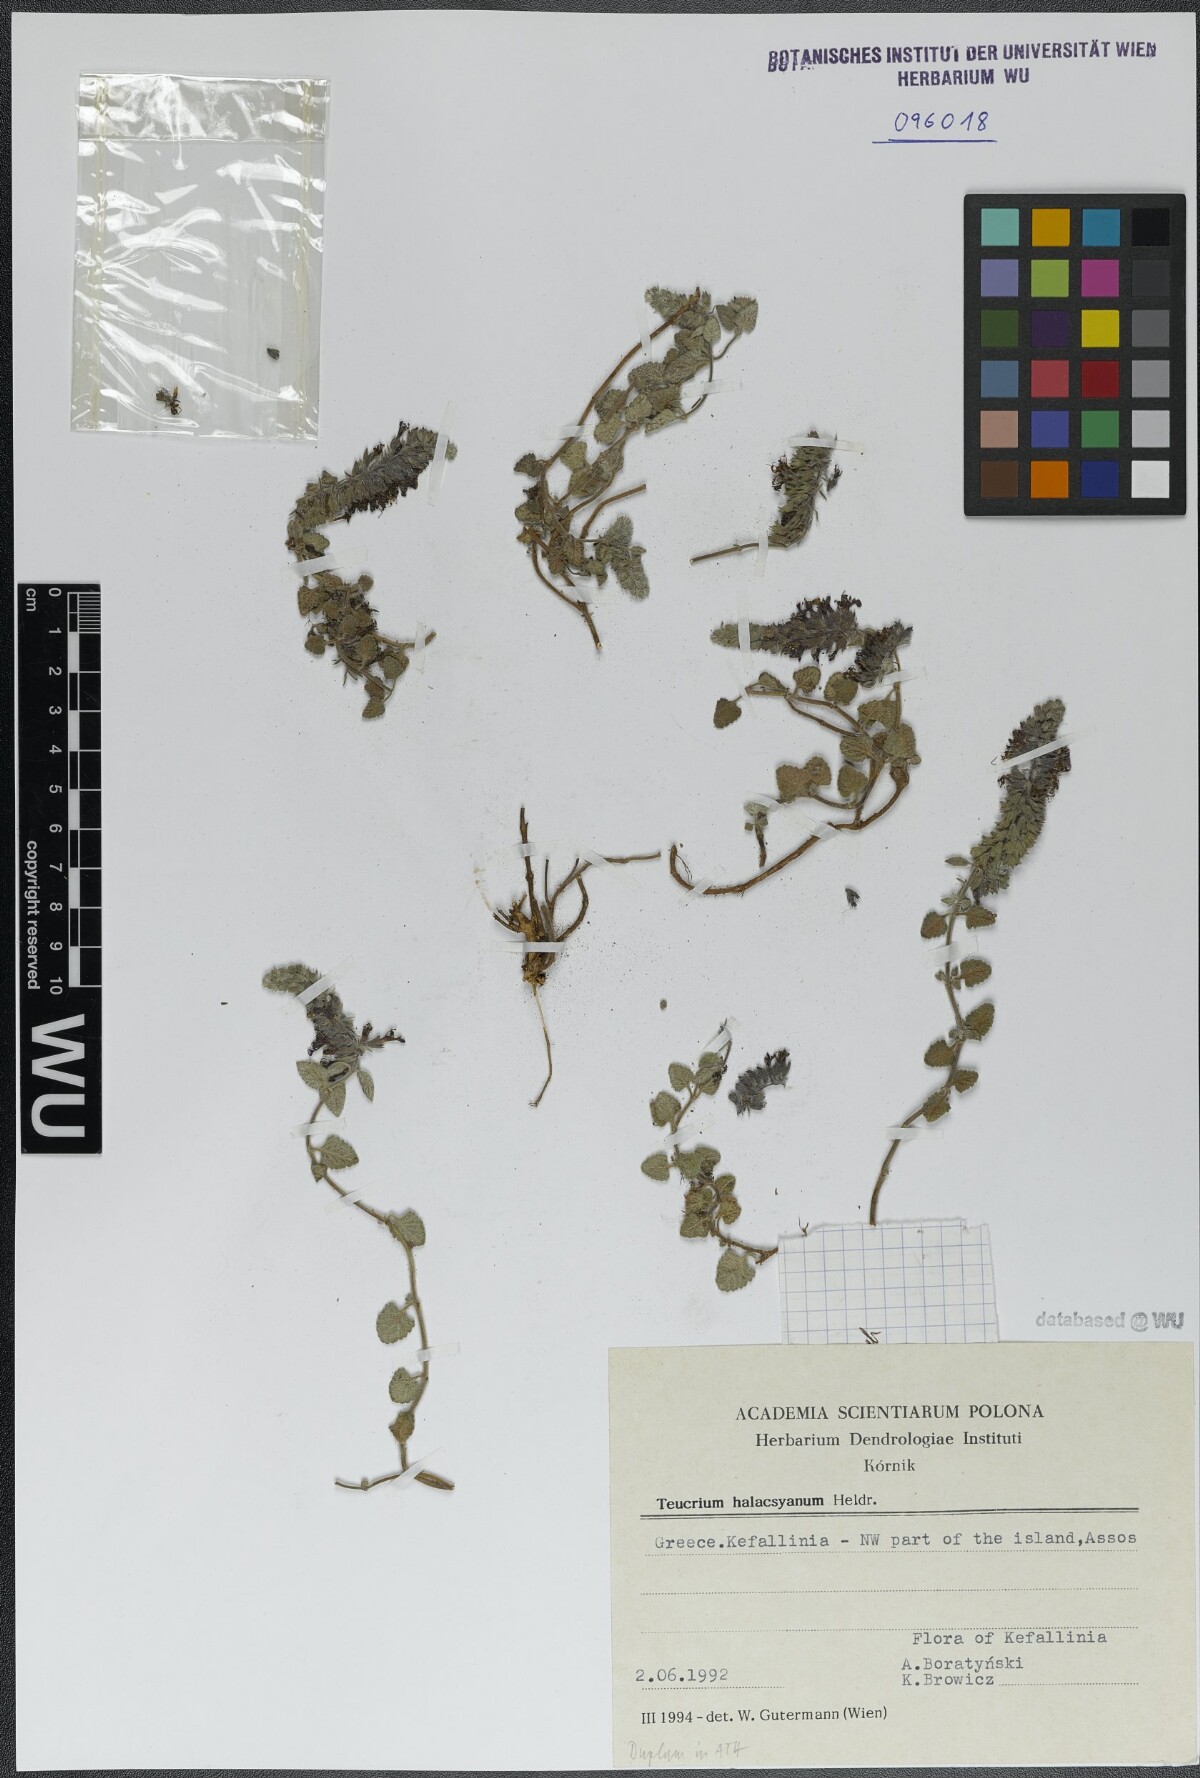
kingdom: Plantae
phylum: Tracheophyta
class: Magnoliopsida
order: Lamiales
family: Lamiaceae
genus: Teucrium
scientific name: Teucrium halacsyanum
